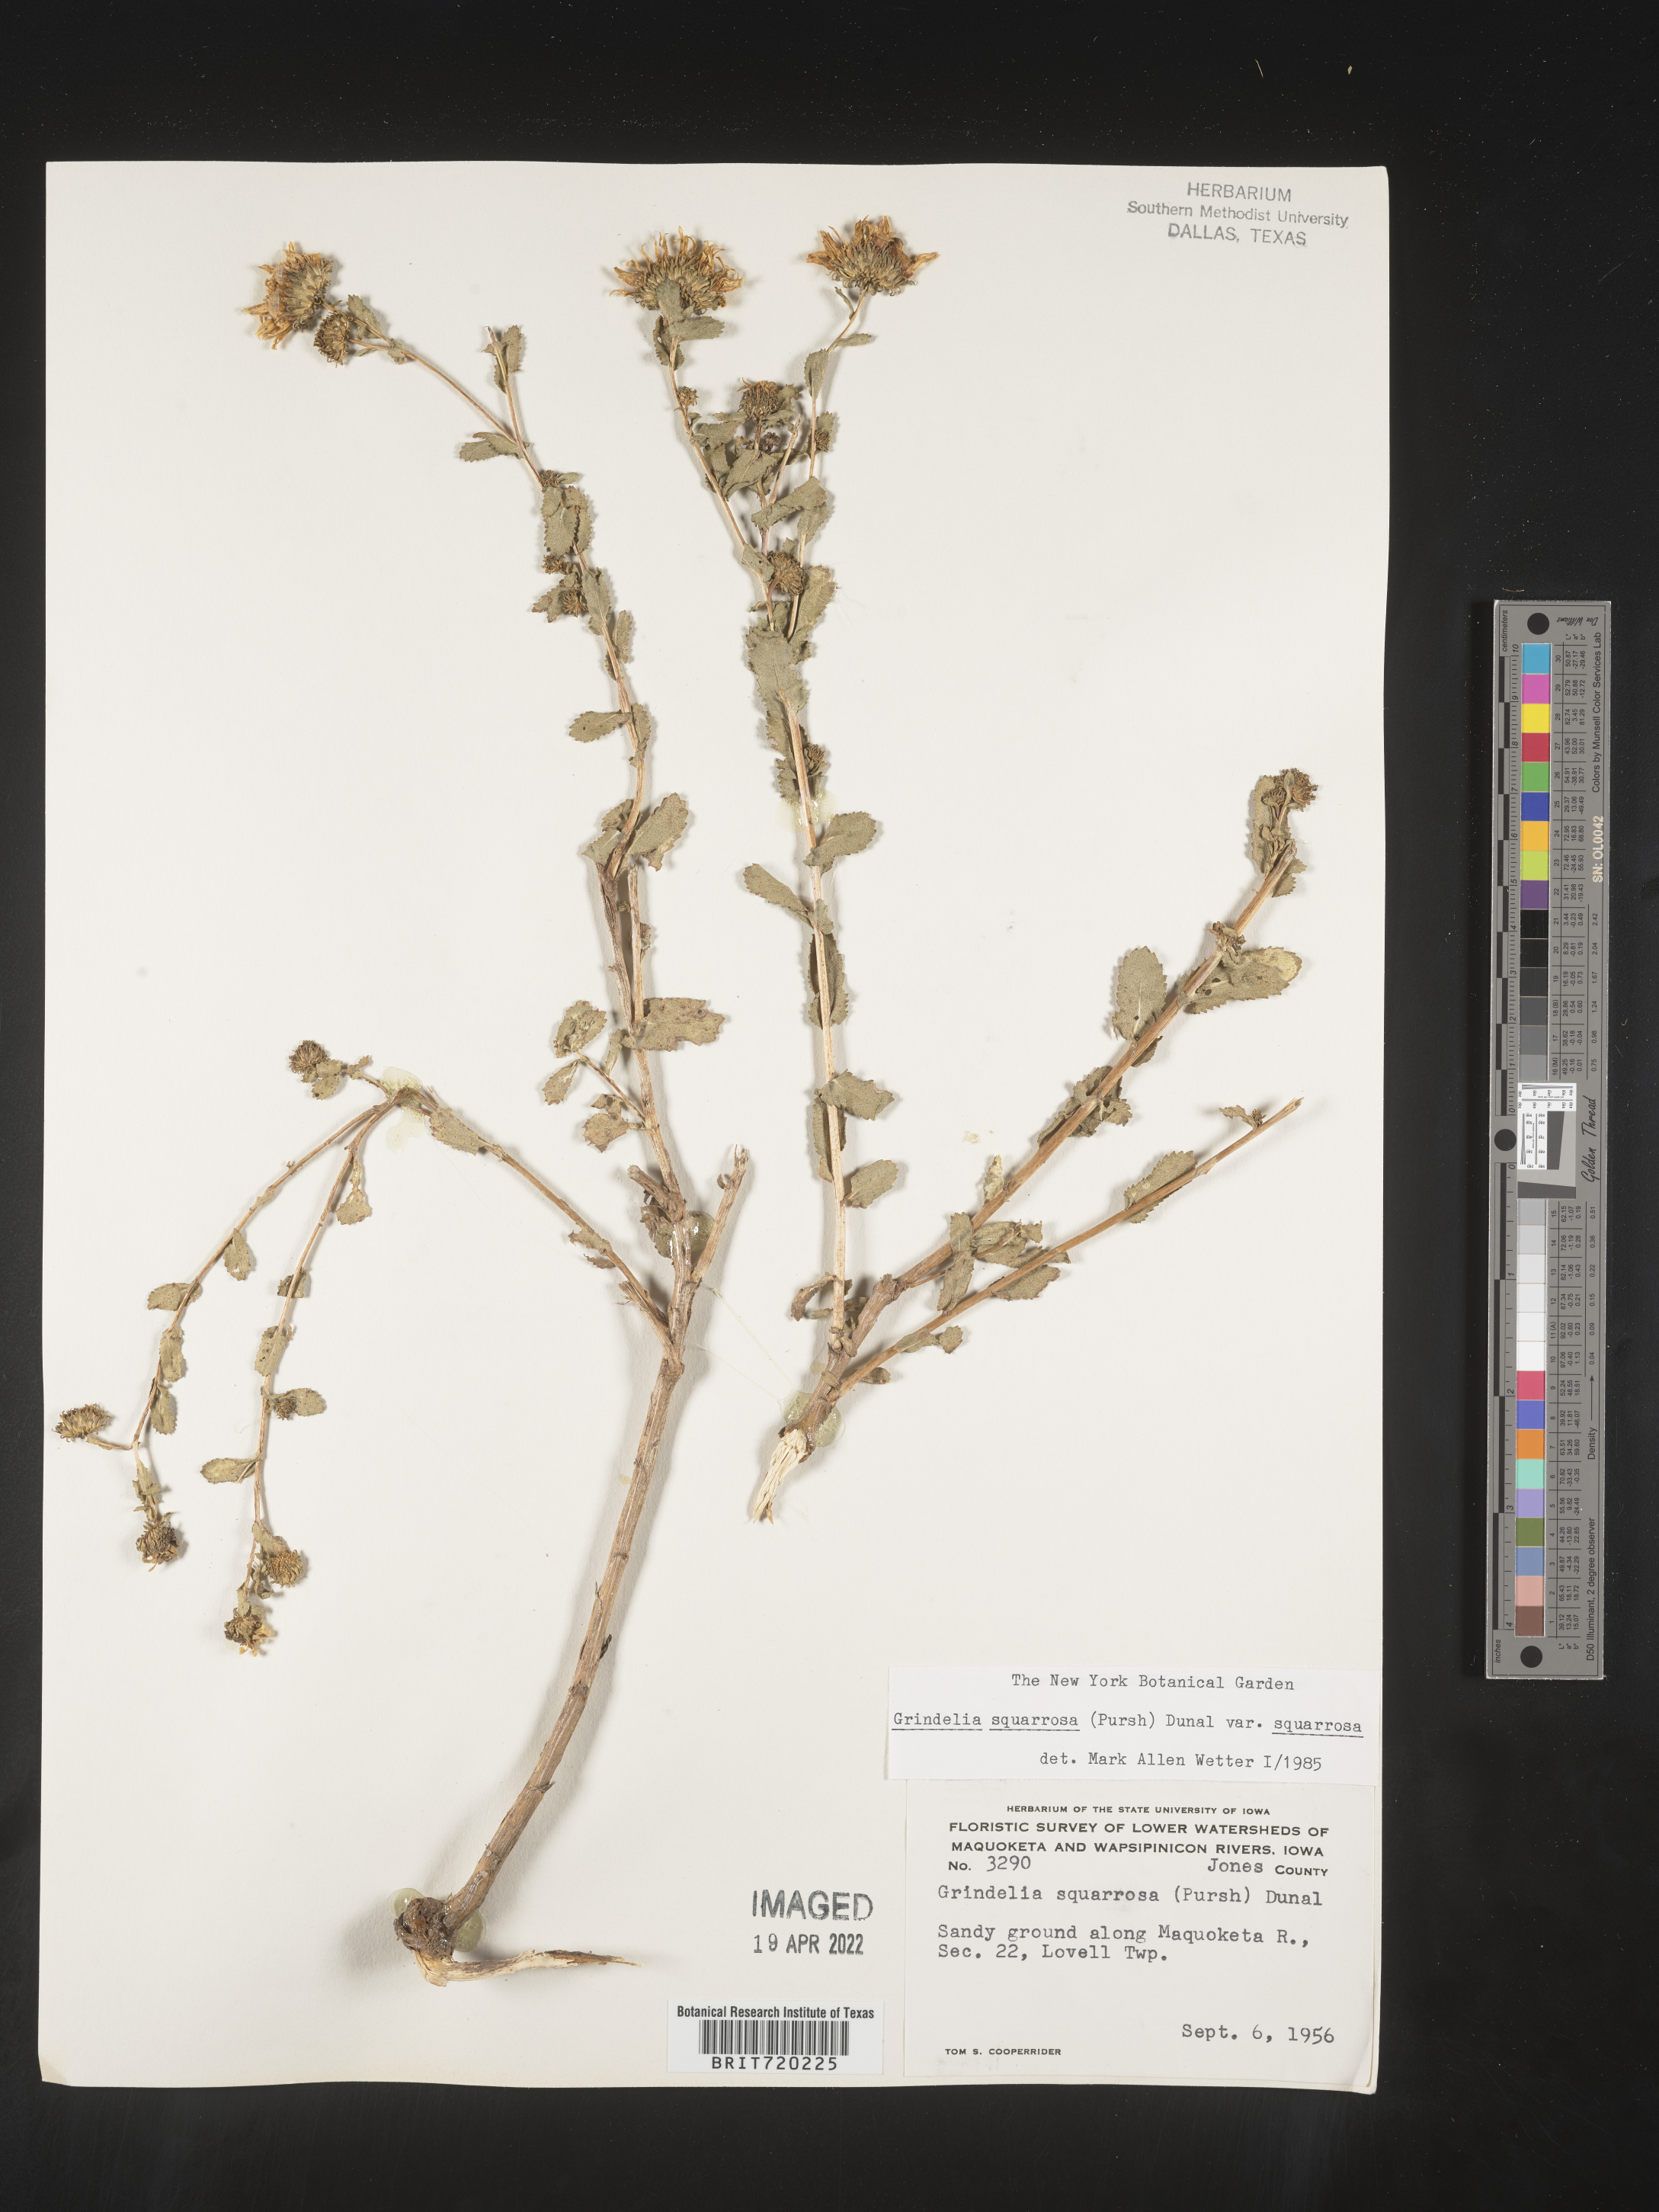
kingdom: Plantae
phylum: Tracheophyta
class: Magnoliopsida
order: Asterales
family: Asteraceae
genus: Grindelia
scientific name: Grindelia squarrosa
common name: Curly-cup gumweed
